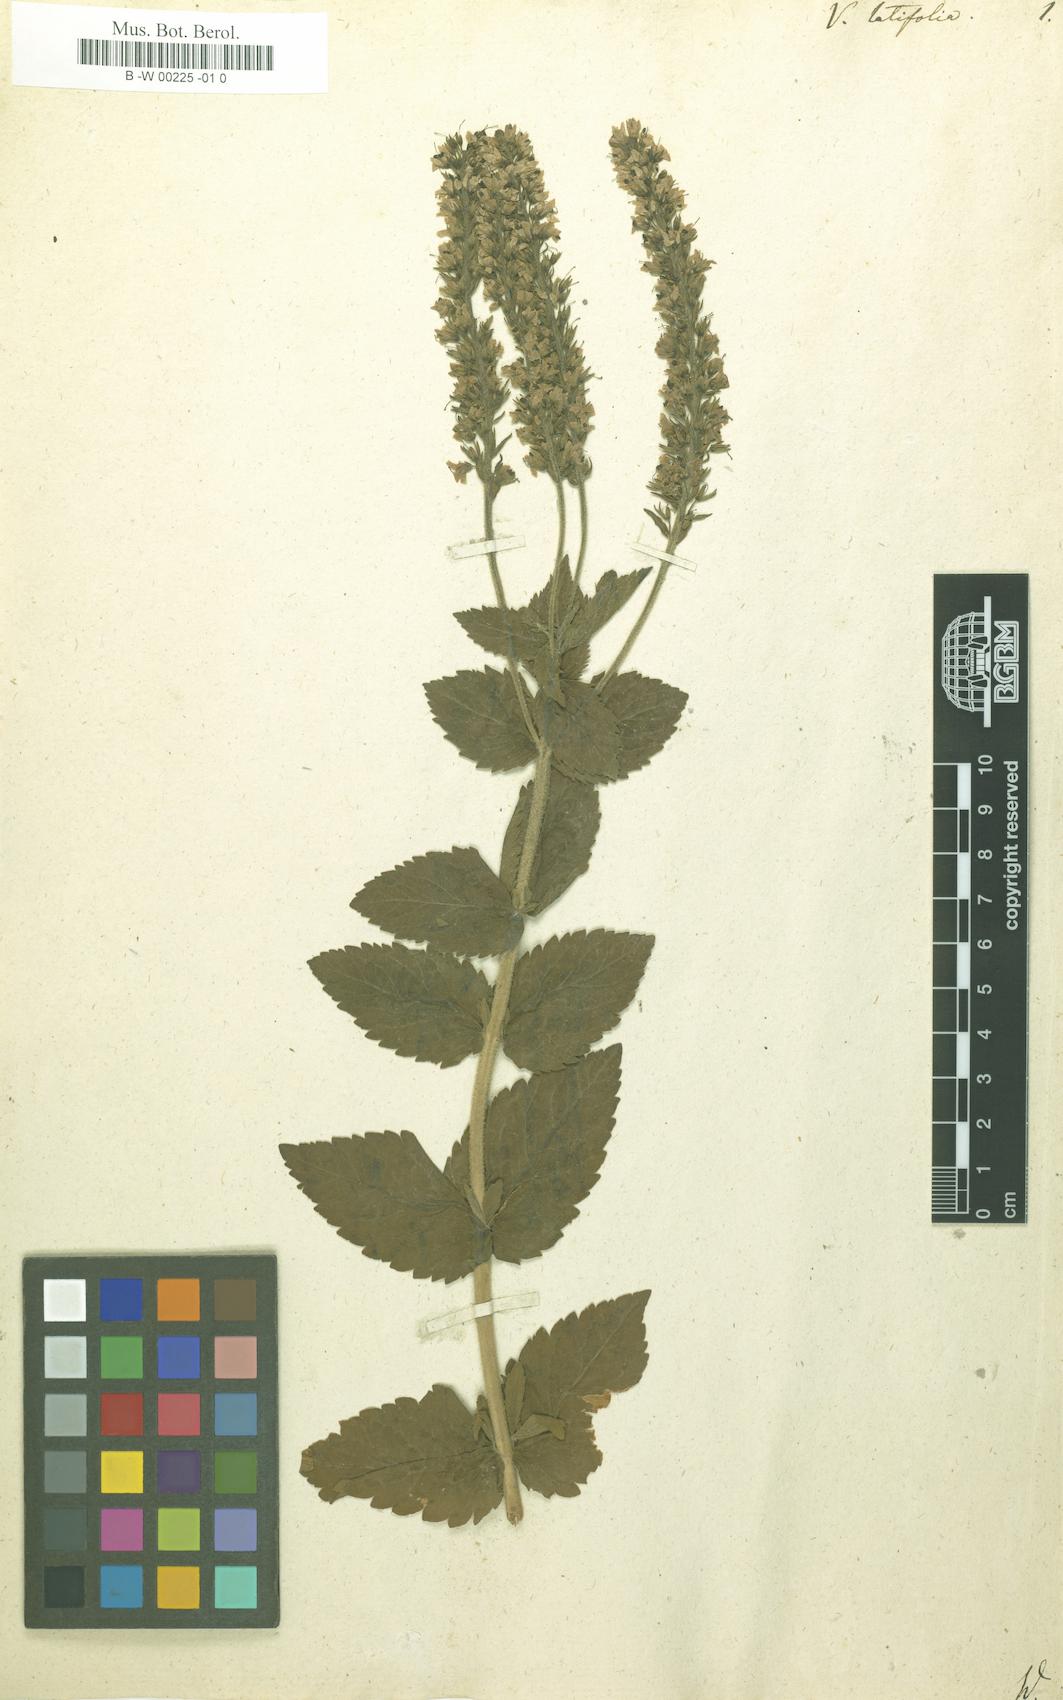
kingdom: Plantae
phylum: Tracheophyta
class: Magnoliopsida
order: Lamiales
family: Plantaginaceae
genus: Veronica
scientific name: Veronica latifolia
